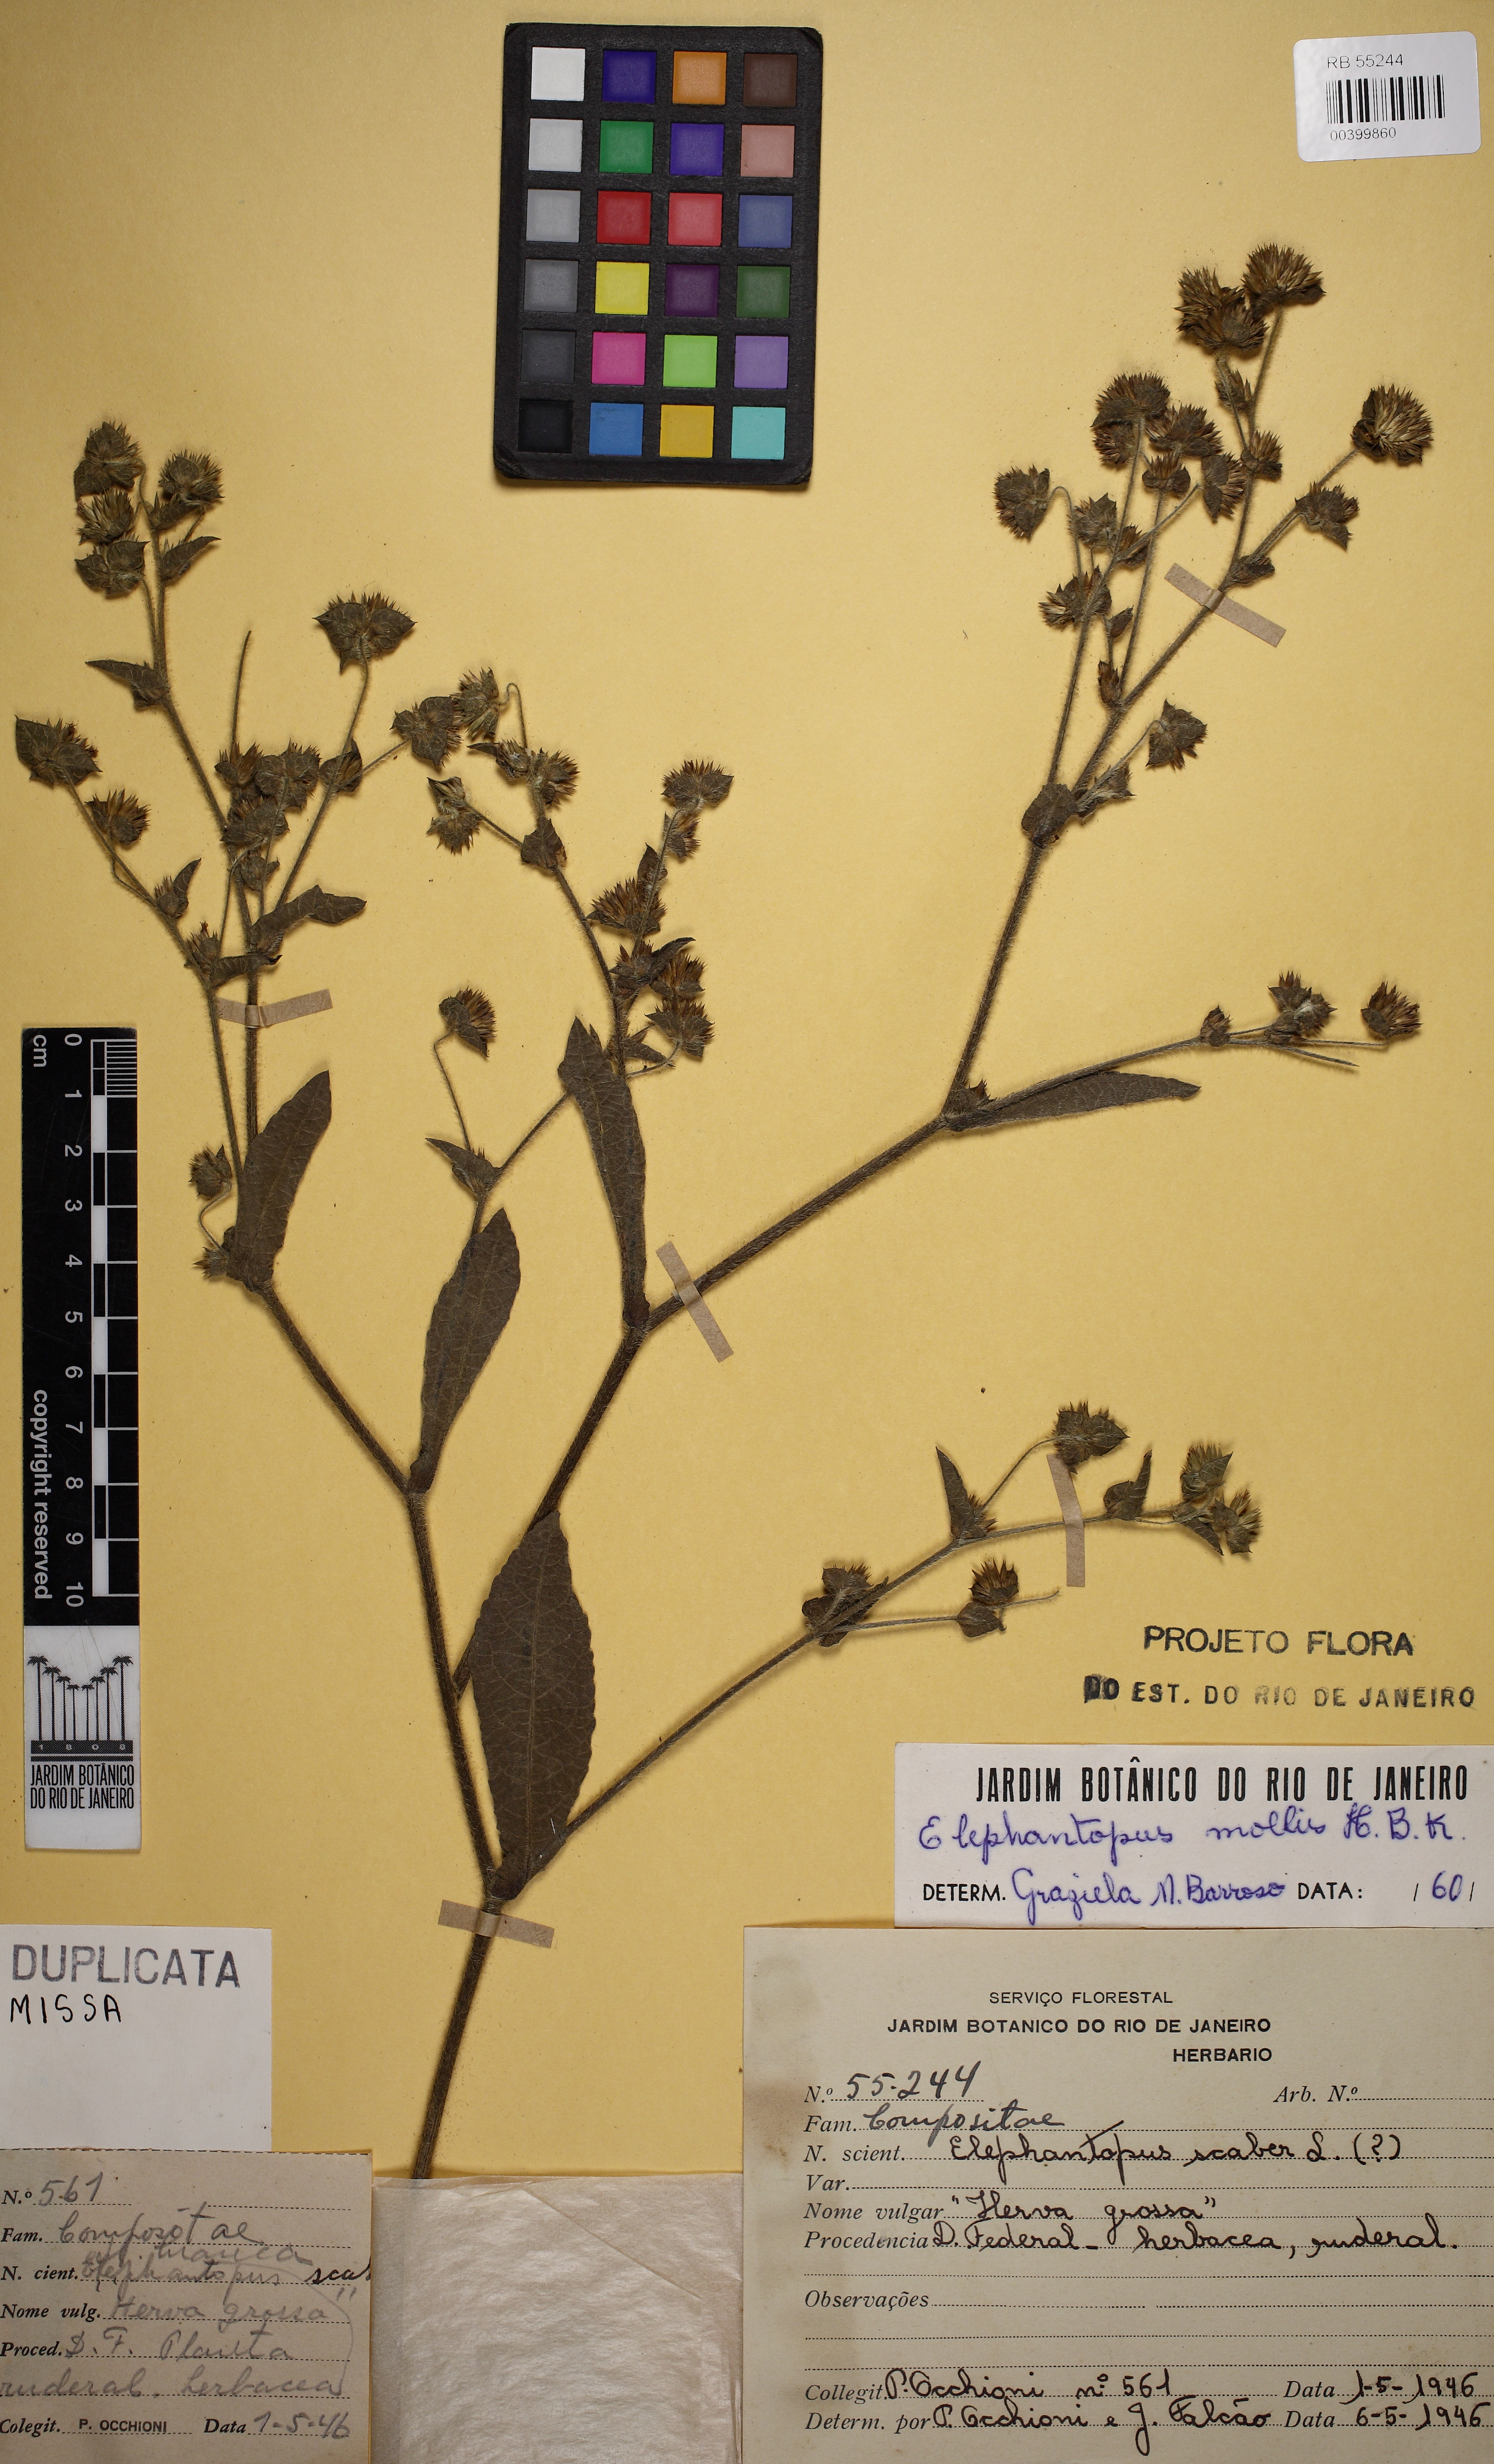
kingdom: Plantae
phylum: Tracheophyta
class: Magnoliopsida
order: Asterales
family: Asteraceae
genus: Elephantopus
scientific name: Elephantopus mollis
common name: Soft elephantsfoot
